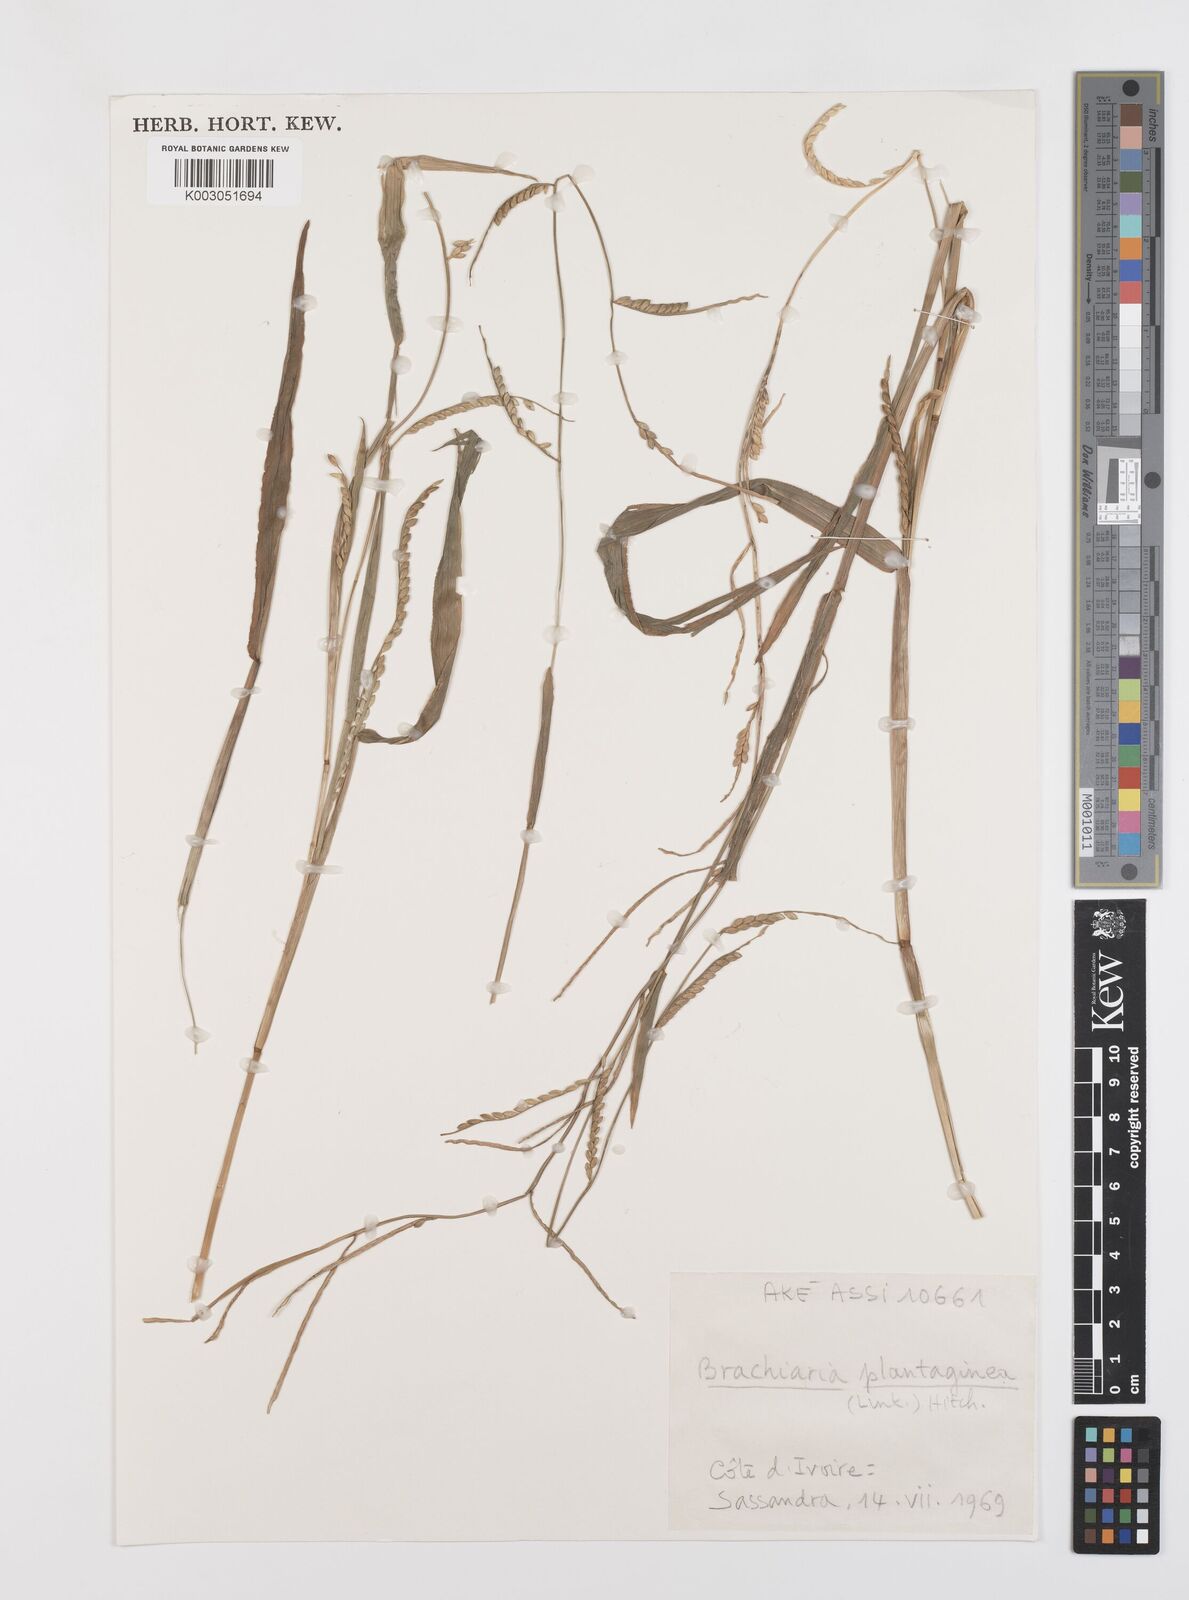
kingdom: Plantae
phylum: Tracheophyta
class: Liliopsida
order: Poales
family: Poaceae
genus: Urochloa
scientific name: Urochloa plantaginea
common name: Plantain signalgrass
